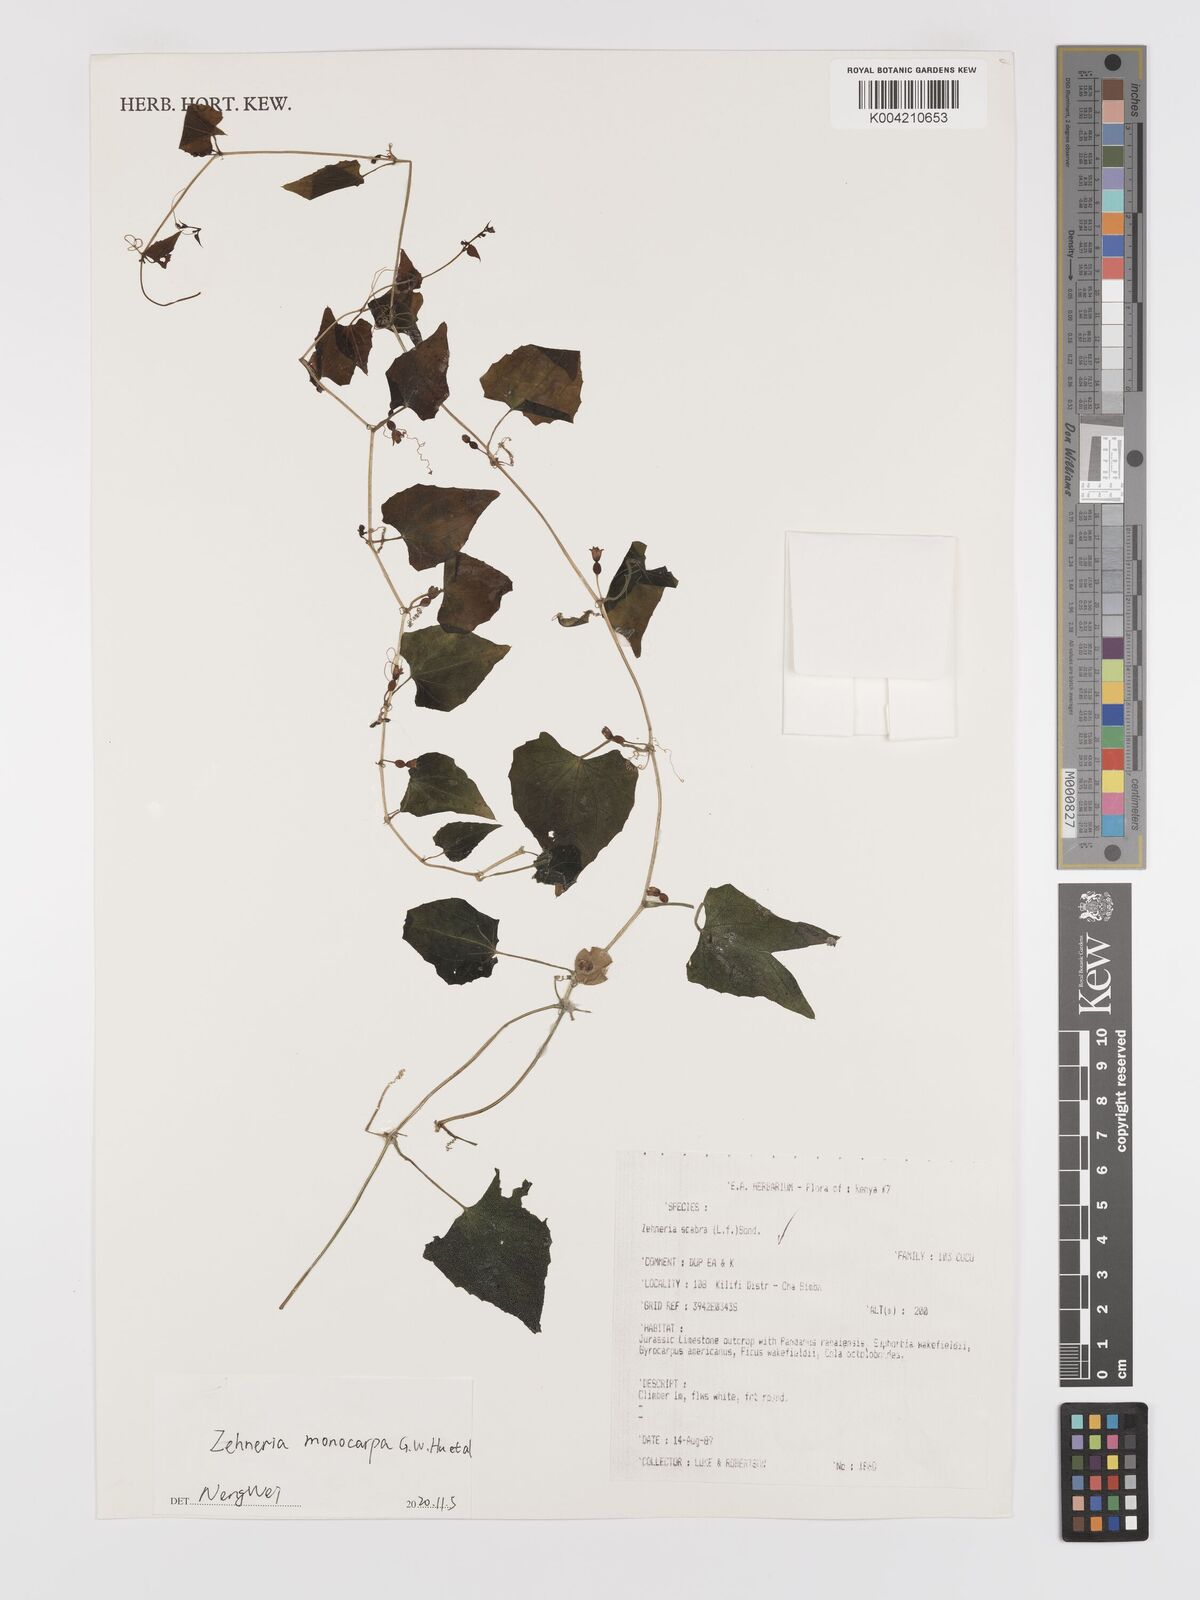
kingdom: Plantae
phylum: Tracheophyta
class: Magnoliopsida
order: Cucurbitales
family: Cucurbitaceae
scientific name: Cucurbitaceae
